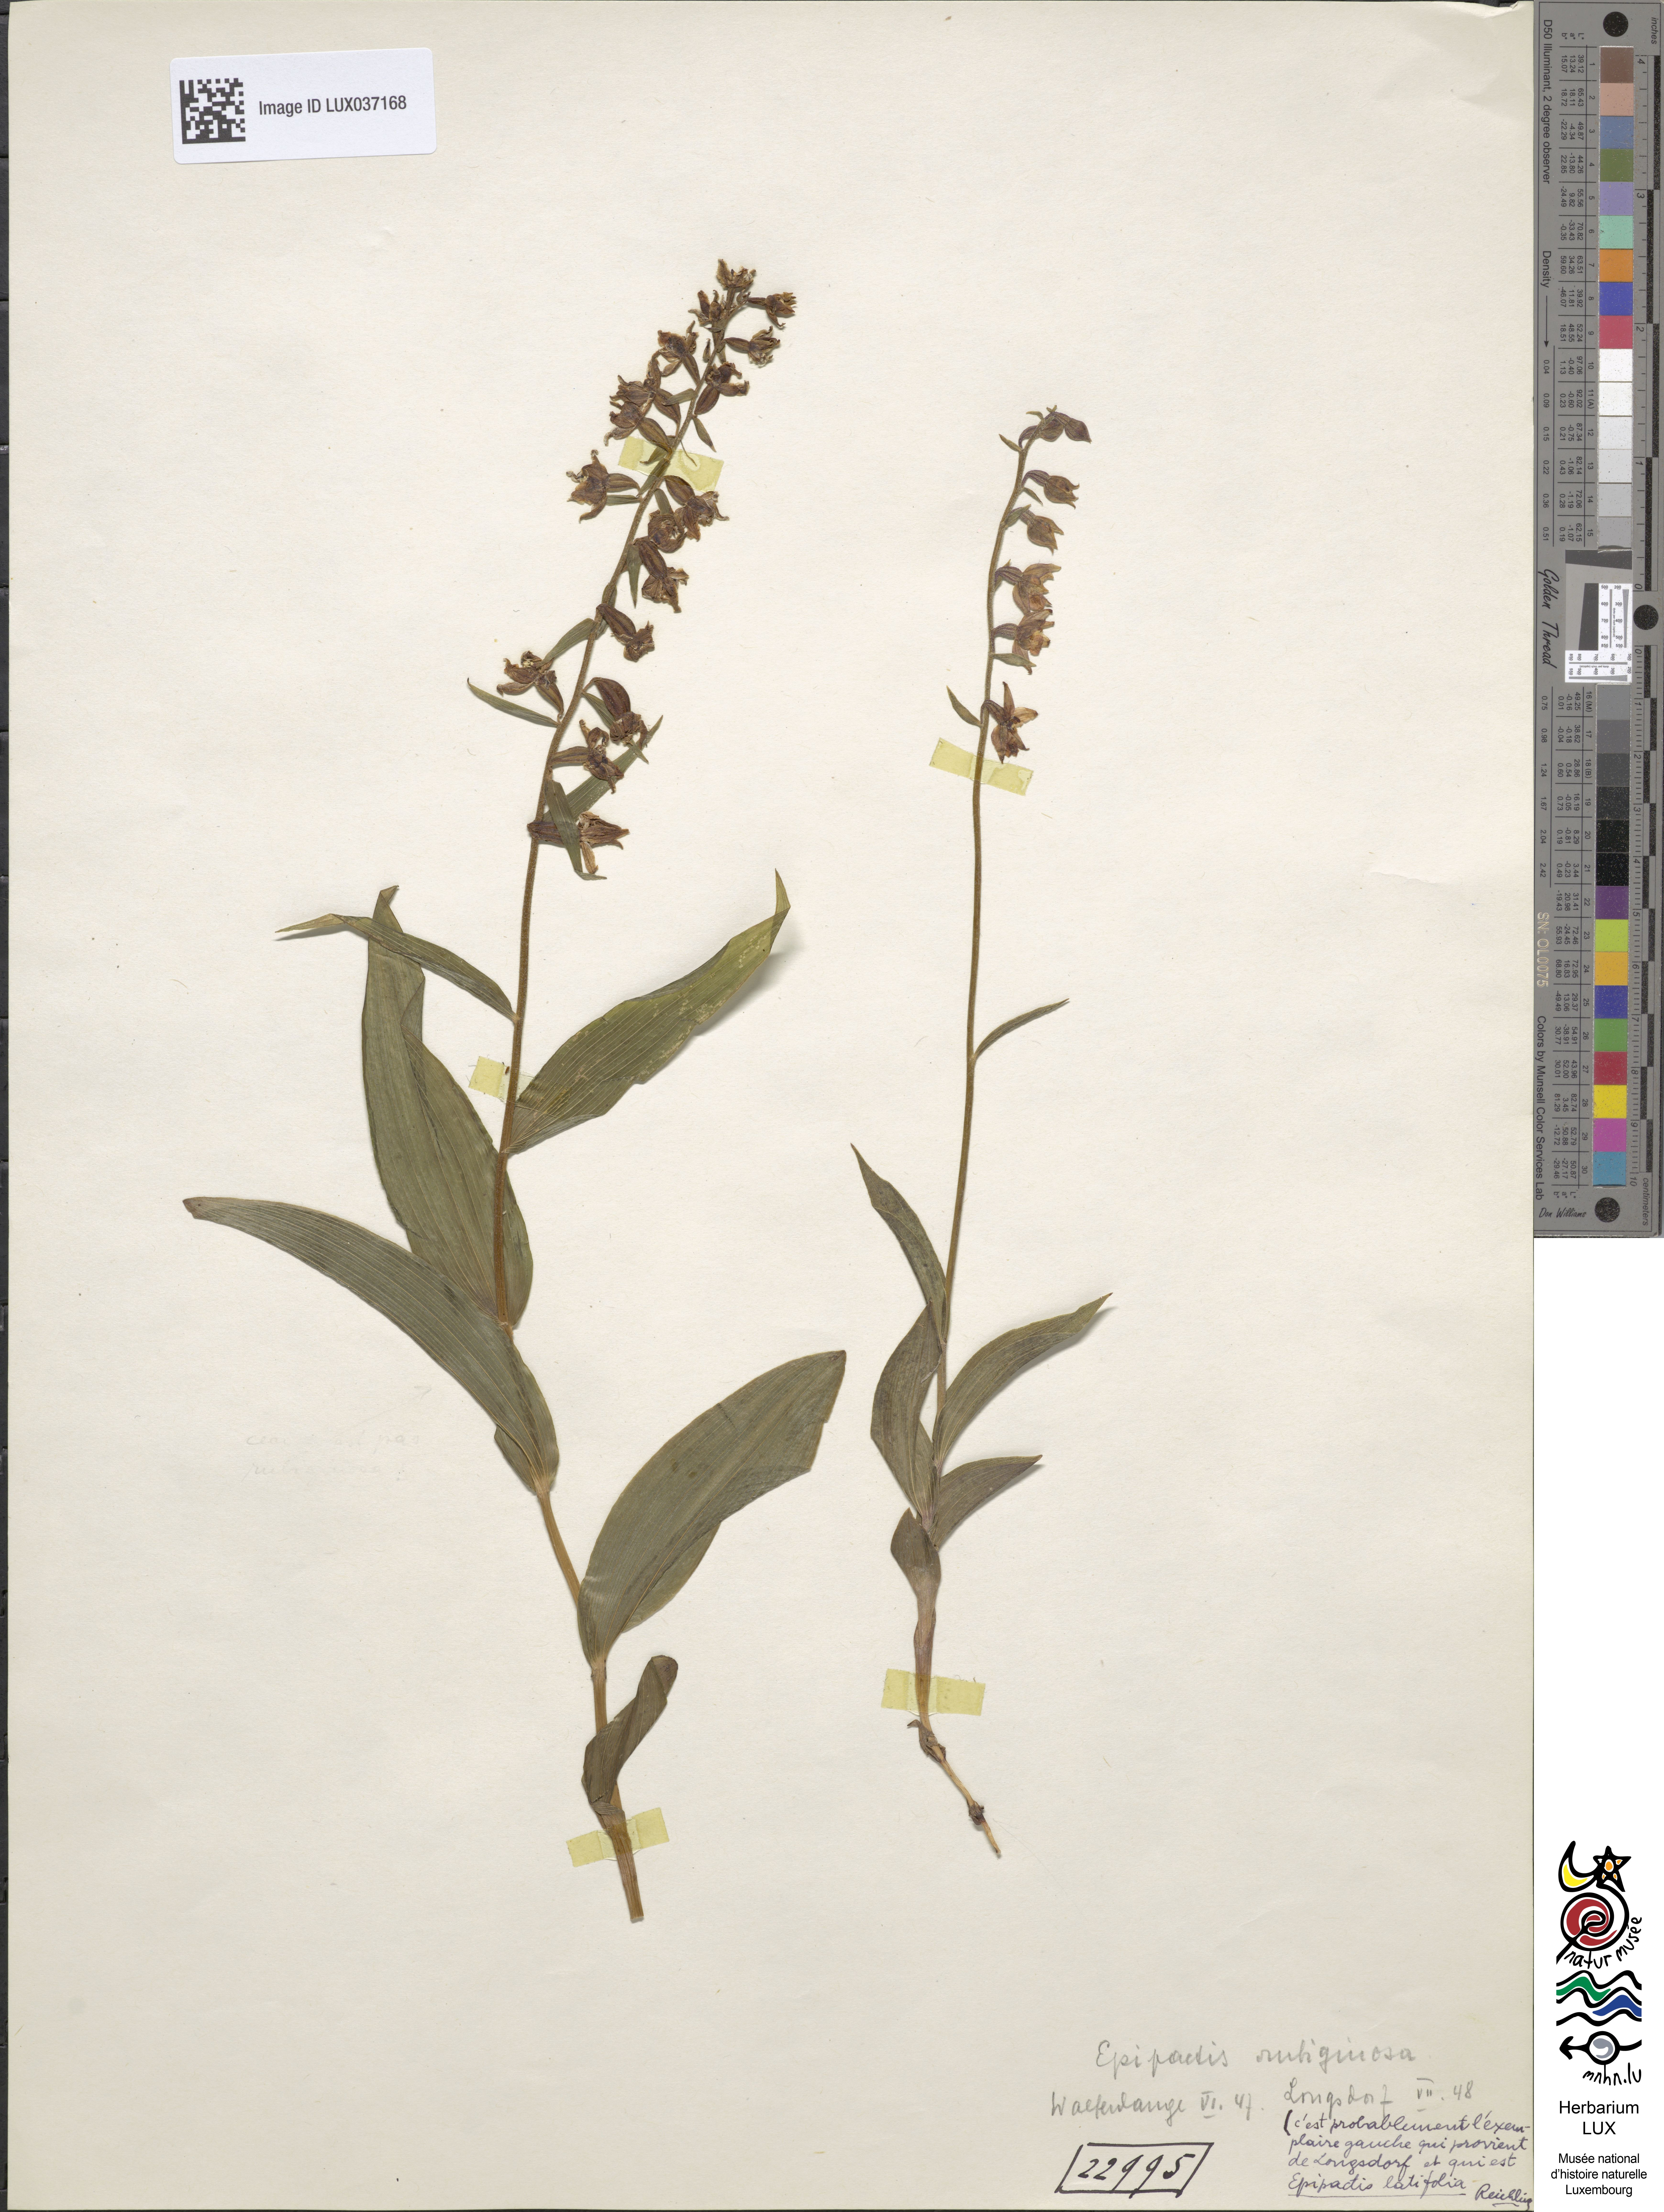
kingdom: Plantae
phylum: Tracheophyta
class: Liliopsida
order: Asparagales
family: Orchidaceae
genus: Epipactis
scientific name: Epipactis atrorubens
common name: Dark-red helleborine
